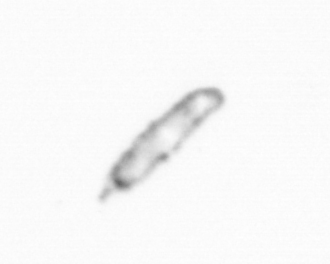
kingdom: Chromista
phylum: Ochrophyta
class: Bacillariophyceae
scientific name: Bacillariophyceae
